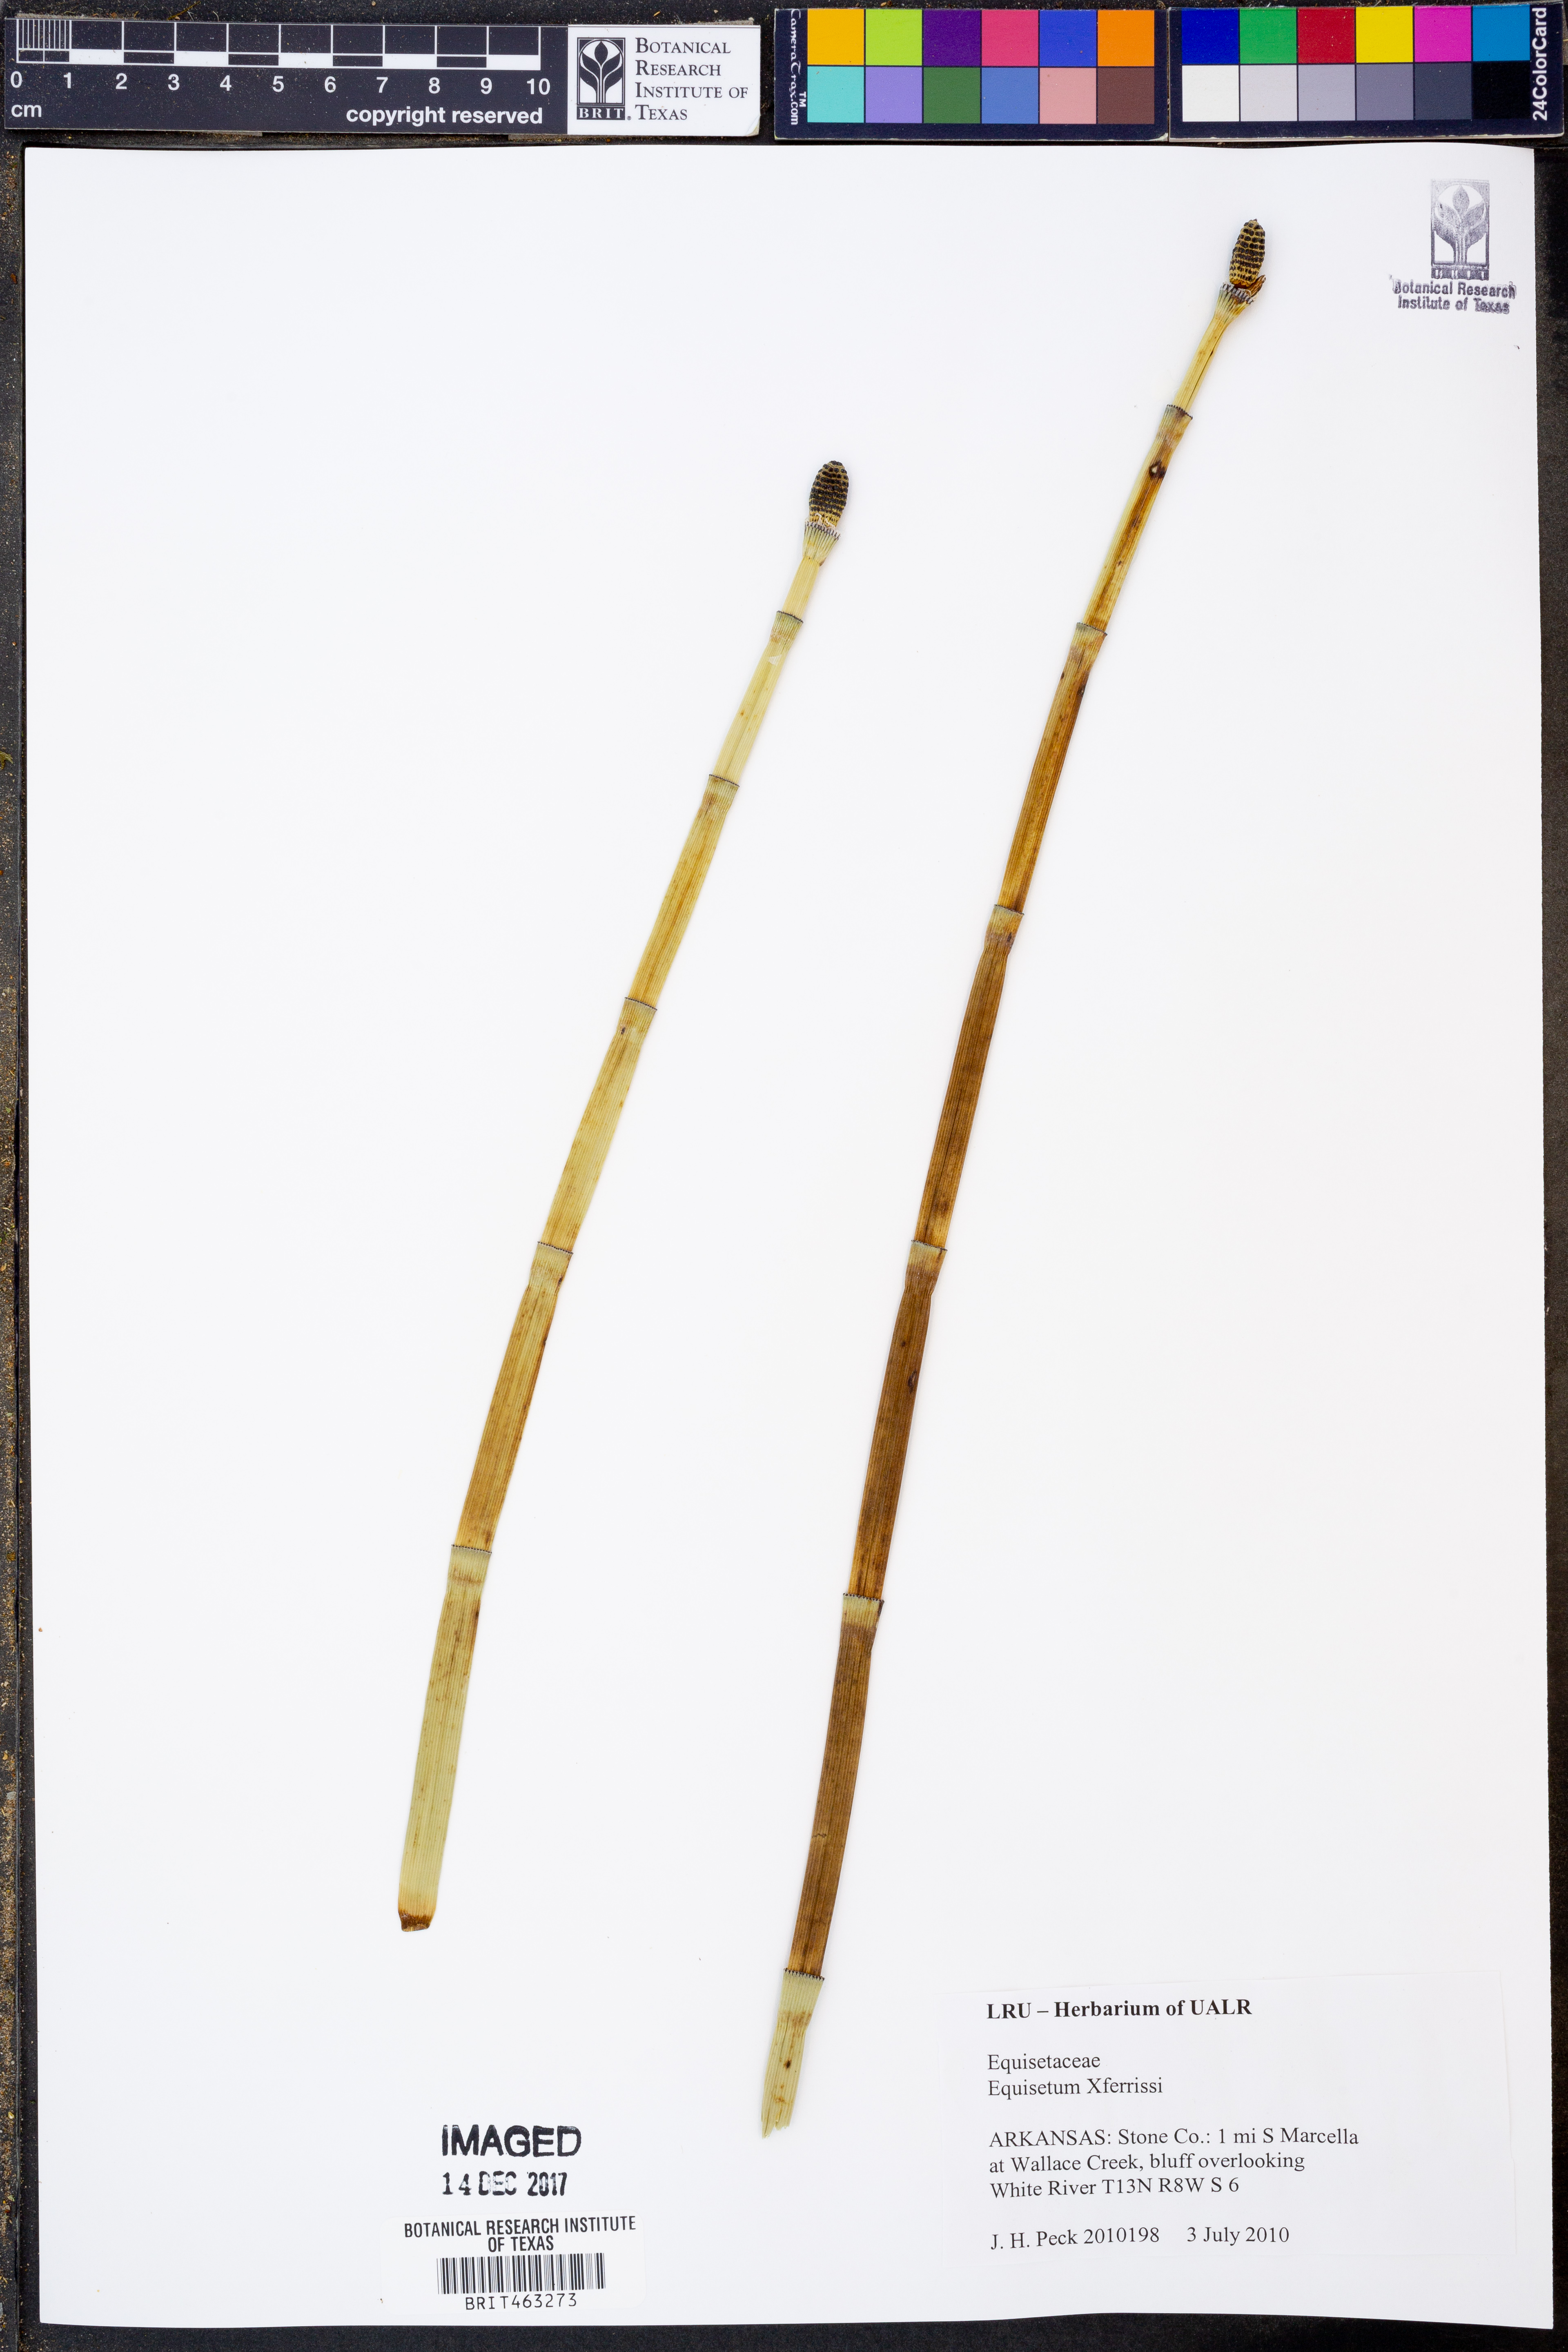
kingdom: Plantae
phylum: Tracheophyta
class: Polypodiopsida
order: Equisetales
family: Equisetaceae
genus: Equisetum
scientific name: Equisetum ferrissii
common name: Ferriss' horsetail
